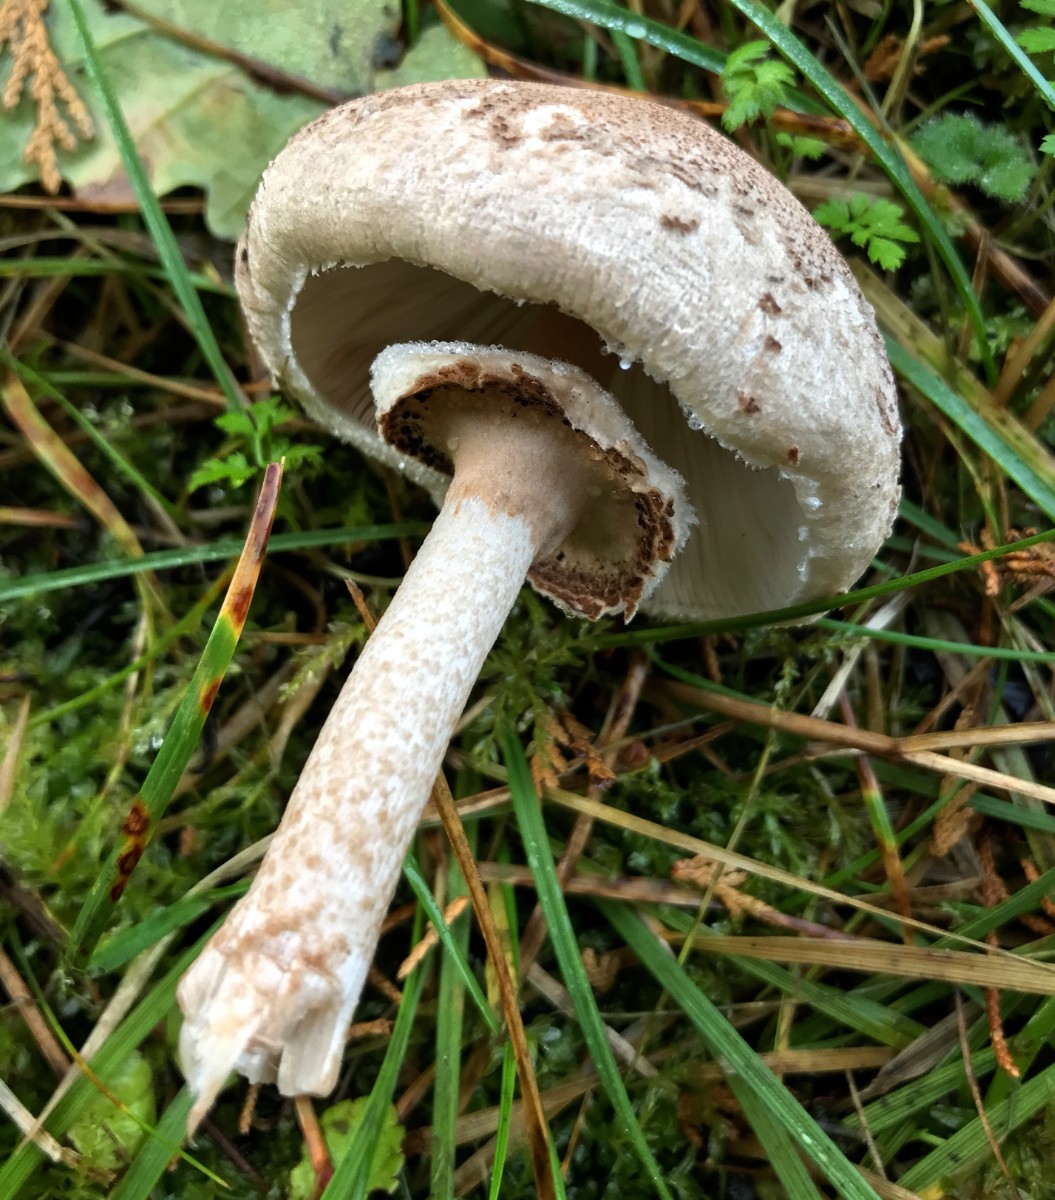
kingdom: Fungi
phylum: Basidiomycota
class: Agaricomycetes
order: Agaricales
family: Agaricaceae
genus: Macrolepiota
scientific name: Macrolepiota
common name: kæmpeparasolhat
